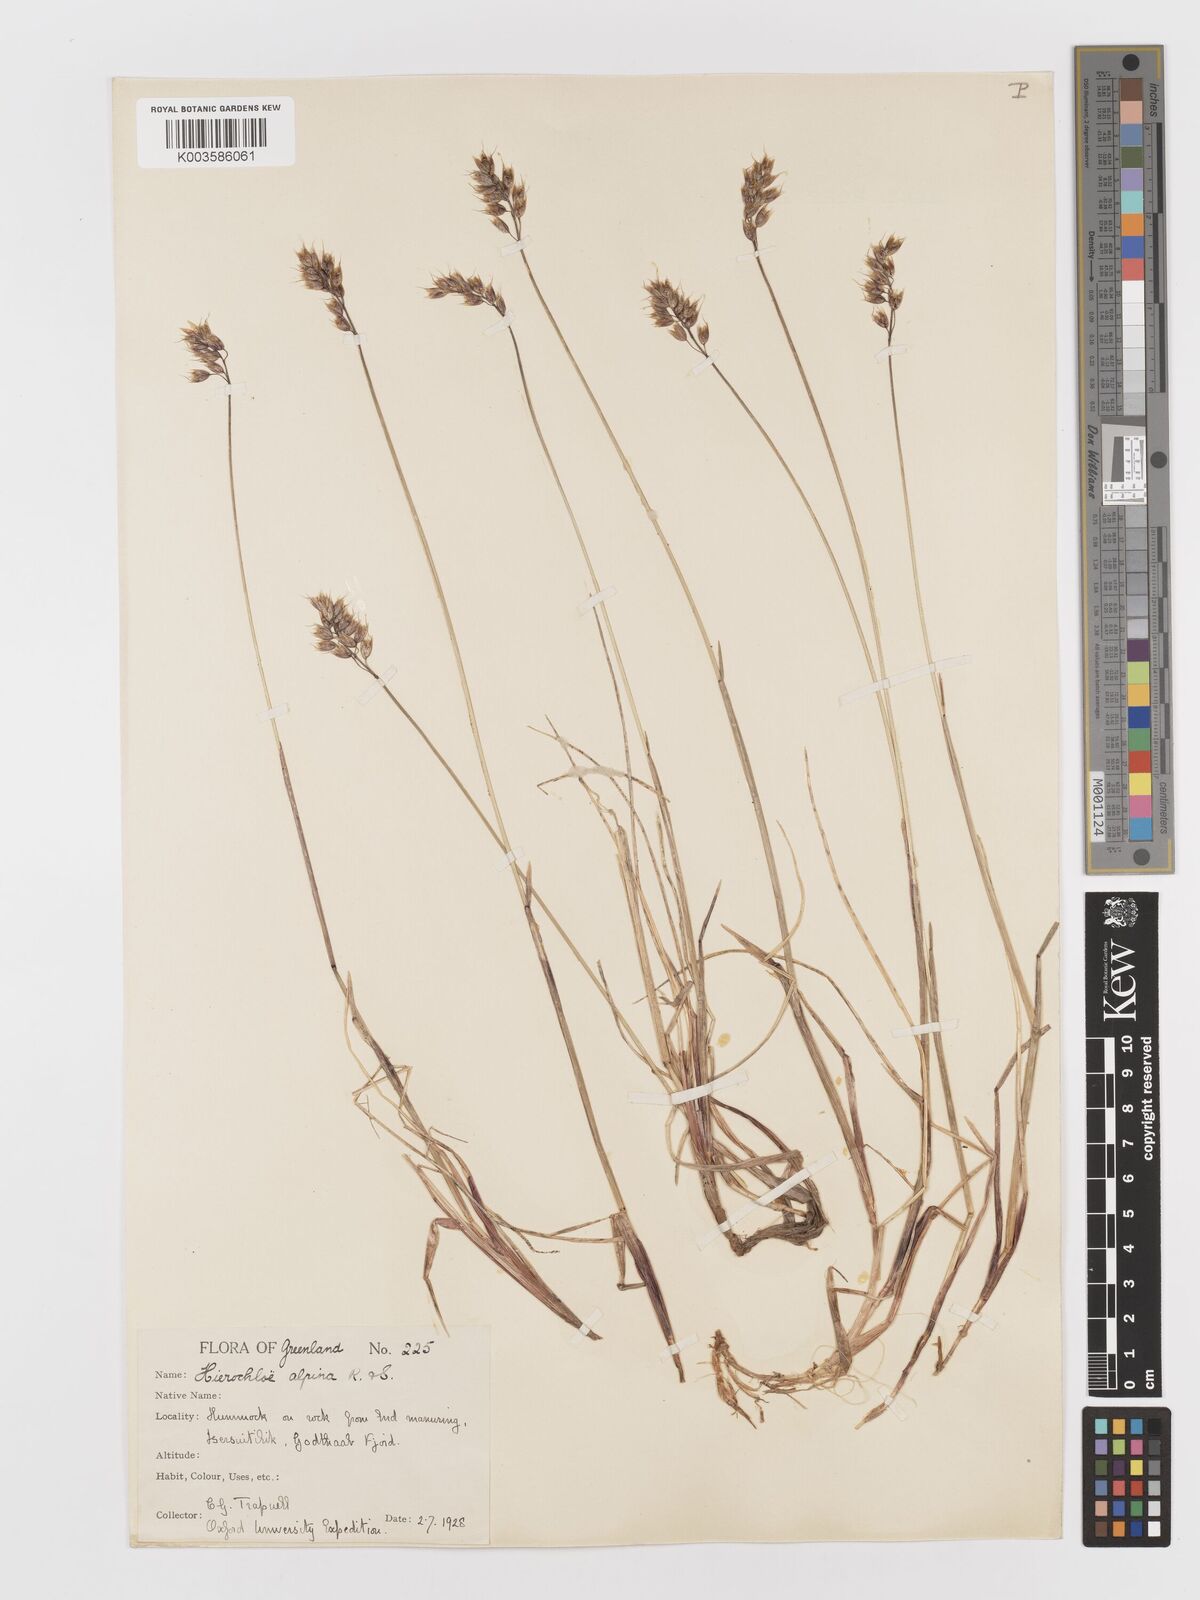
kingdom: Plantae
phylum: Tracheophyta
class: Liliopsida
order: Poales
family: Poaceae
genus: Anthoxanthum
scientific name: Anthoxanthum monticola
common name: Alpine sweetgrass
